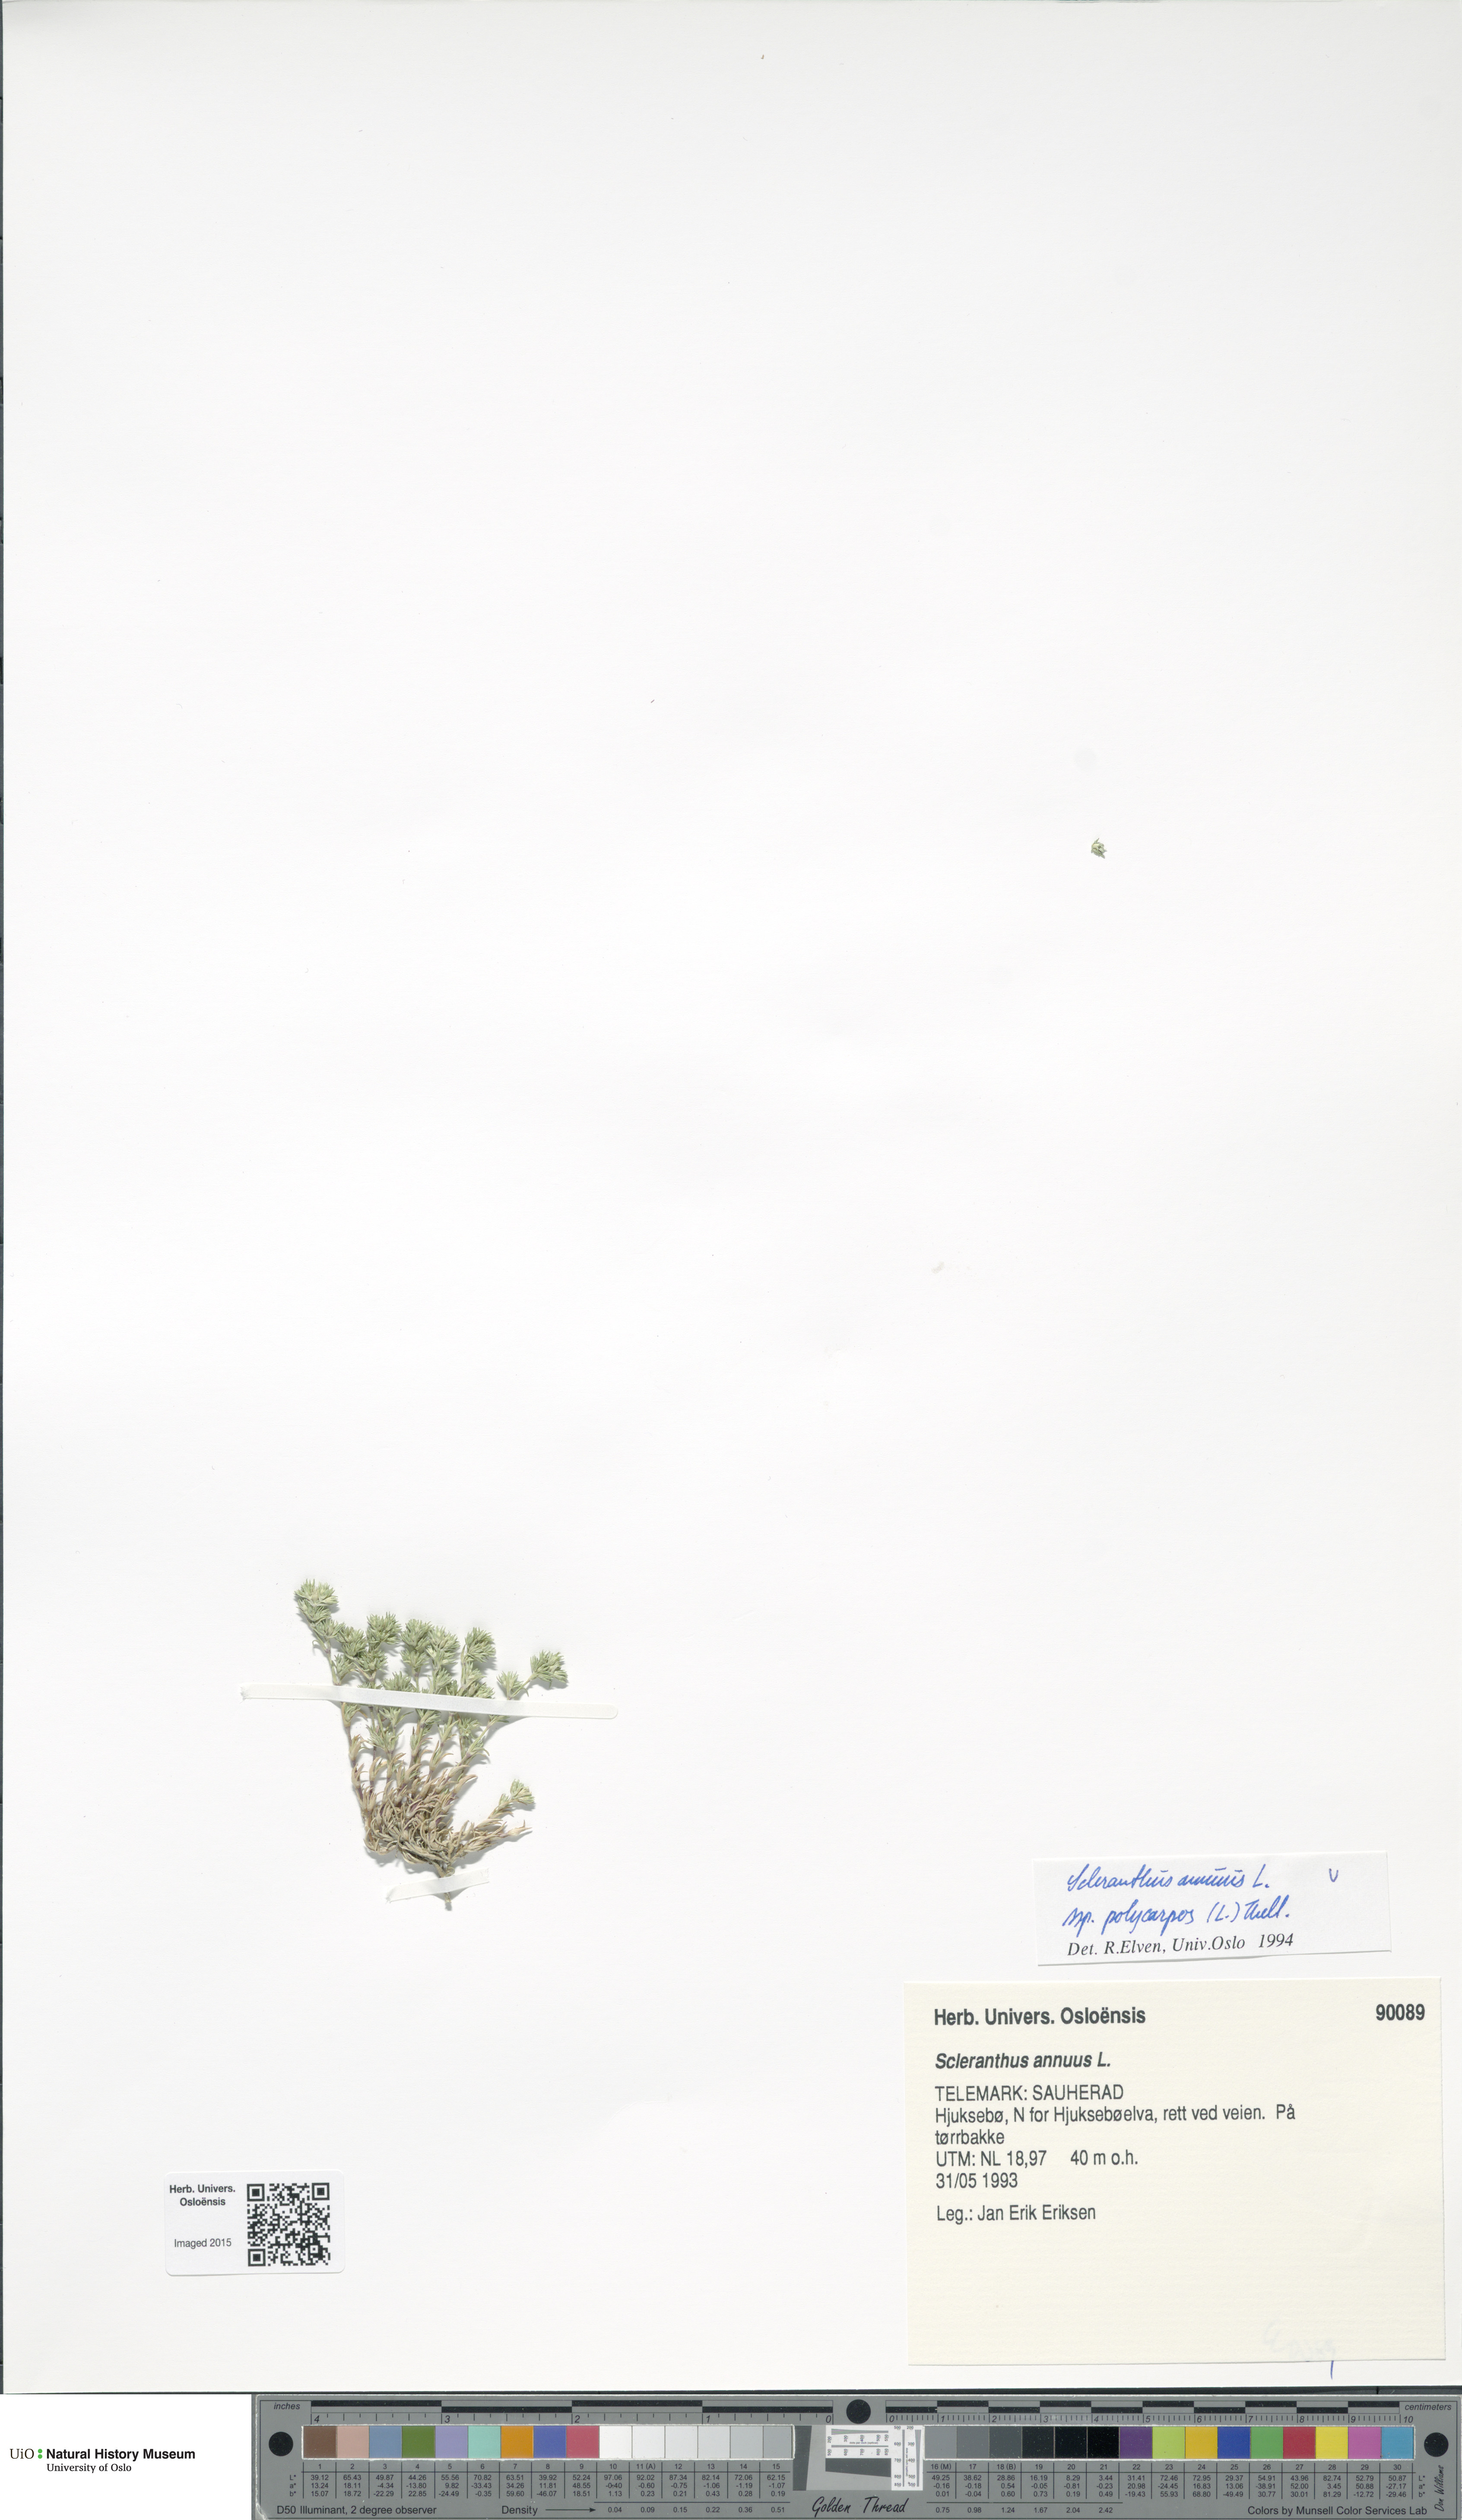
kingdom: Plantae
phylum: Tracheophyta
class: Magnoliopsida
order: Caryophyllales
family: Caryophyllaceae
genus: Scleranthus
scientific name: Scleranthus annuus
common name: Annual knawel
